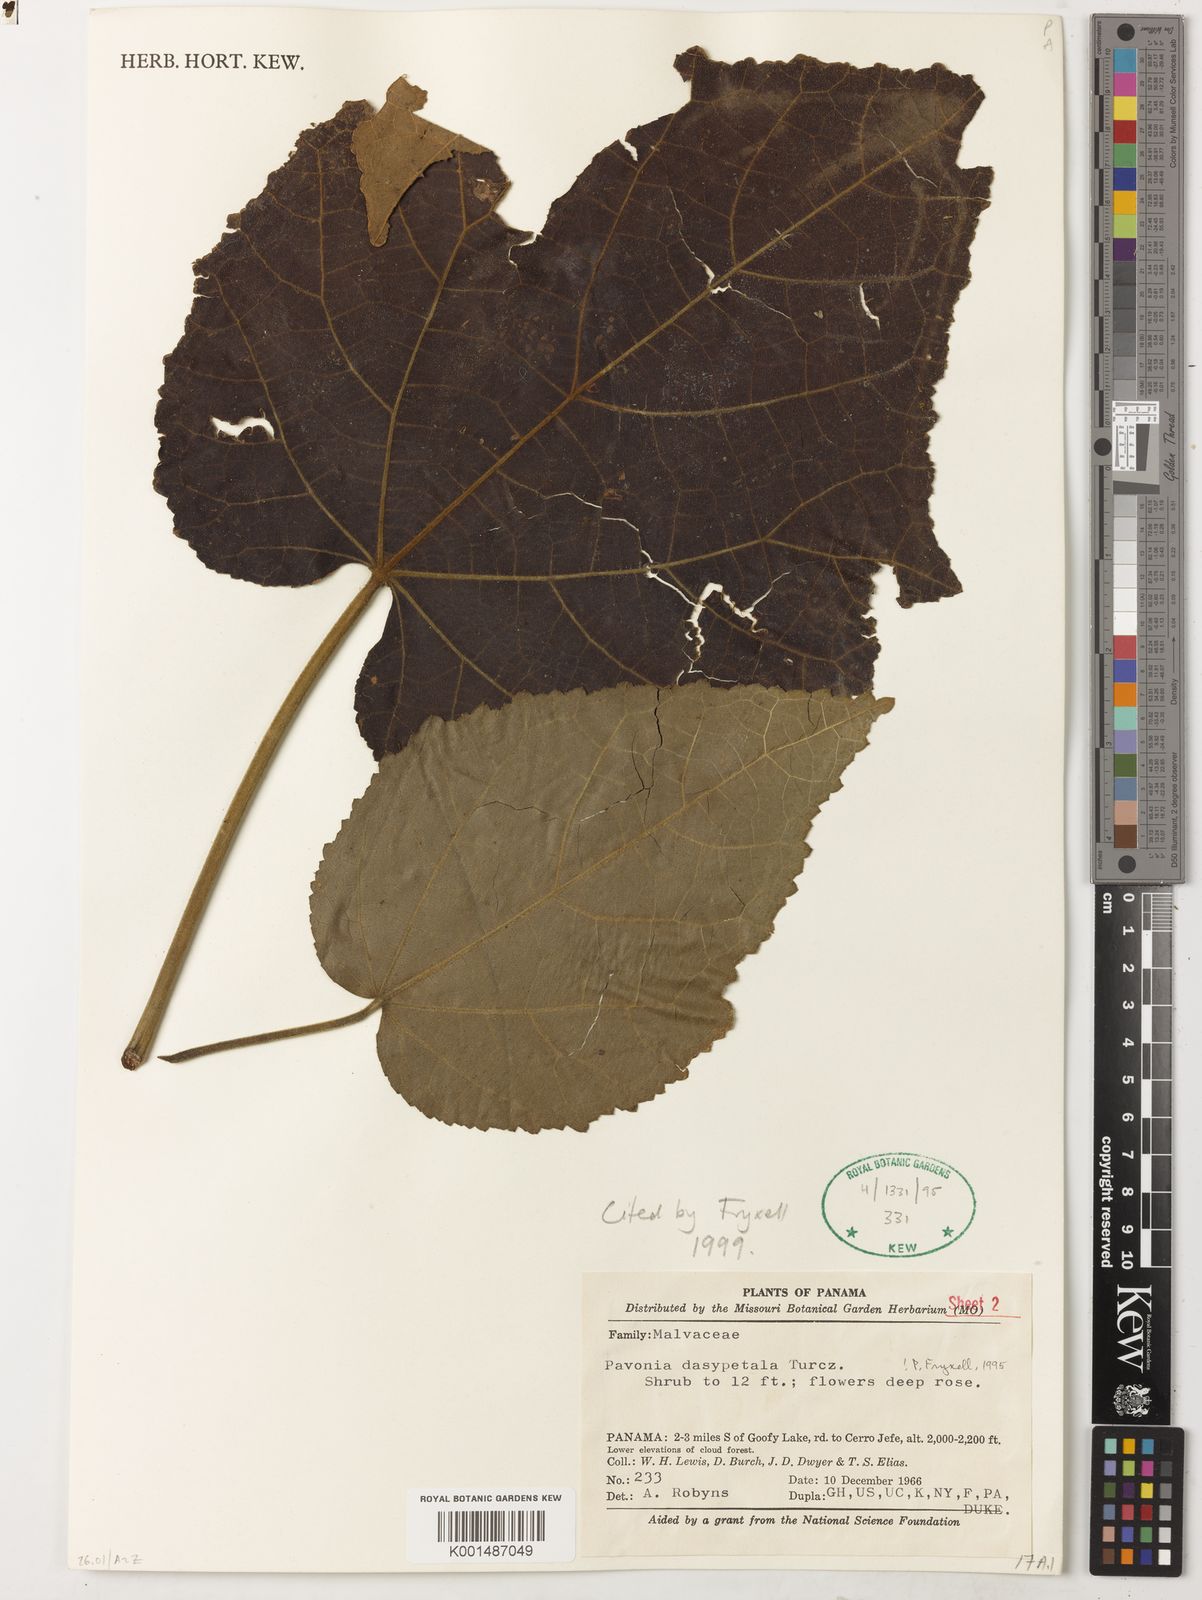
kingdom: Plantae
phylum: Tracheophyta
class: Magnoliopsida
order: Malvales
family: Malvaceae
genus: Pavonia
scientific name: Pavonia dasypetala
